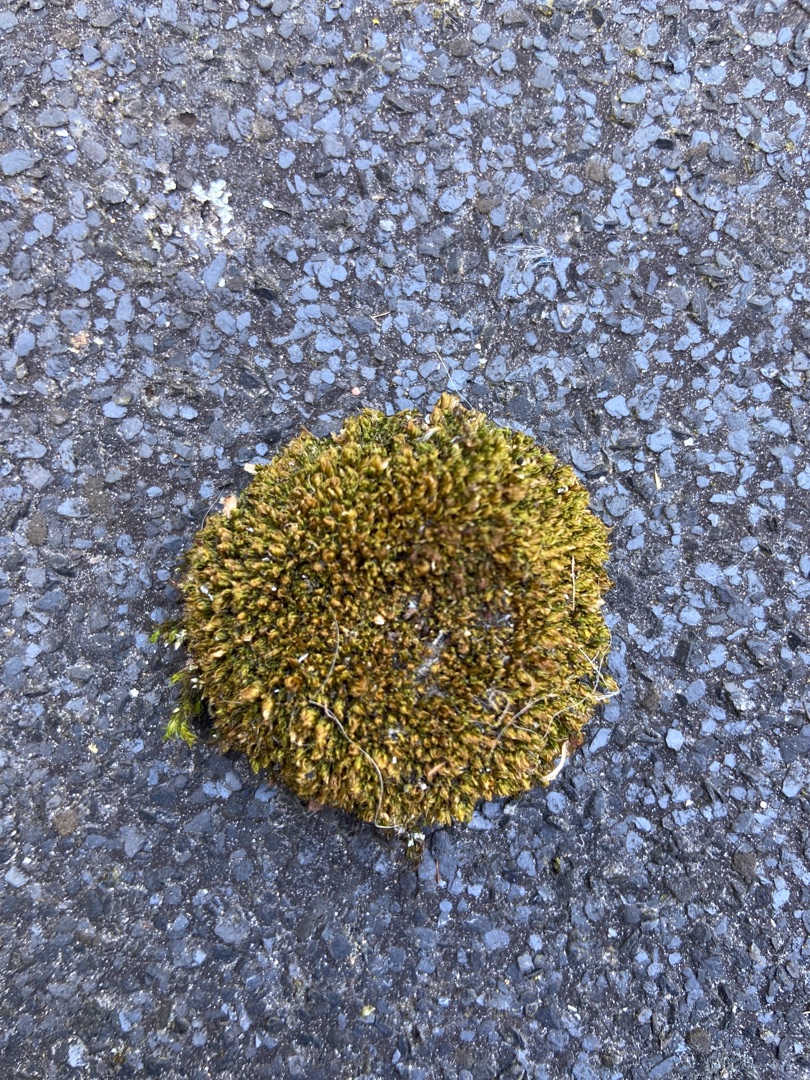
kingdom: Plantae
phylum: Bryophyta
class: Bryopsida
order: Bryales
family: Bryaceae
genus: Rosulabryum
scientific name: Rosulabryum capillare
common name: Hårspidset bryum
